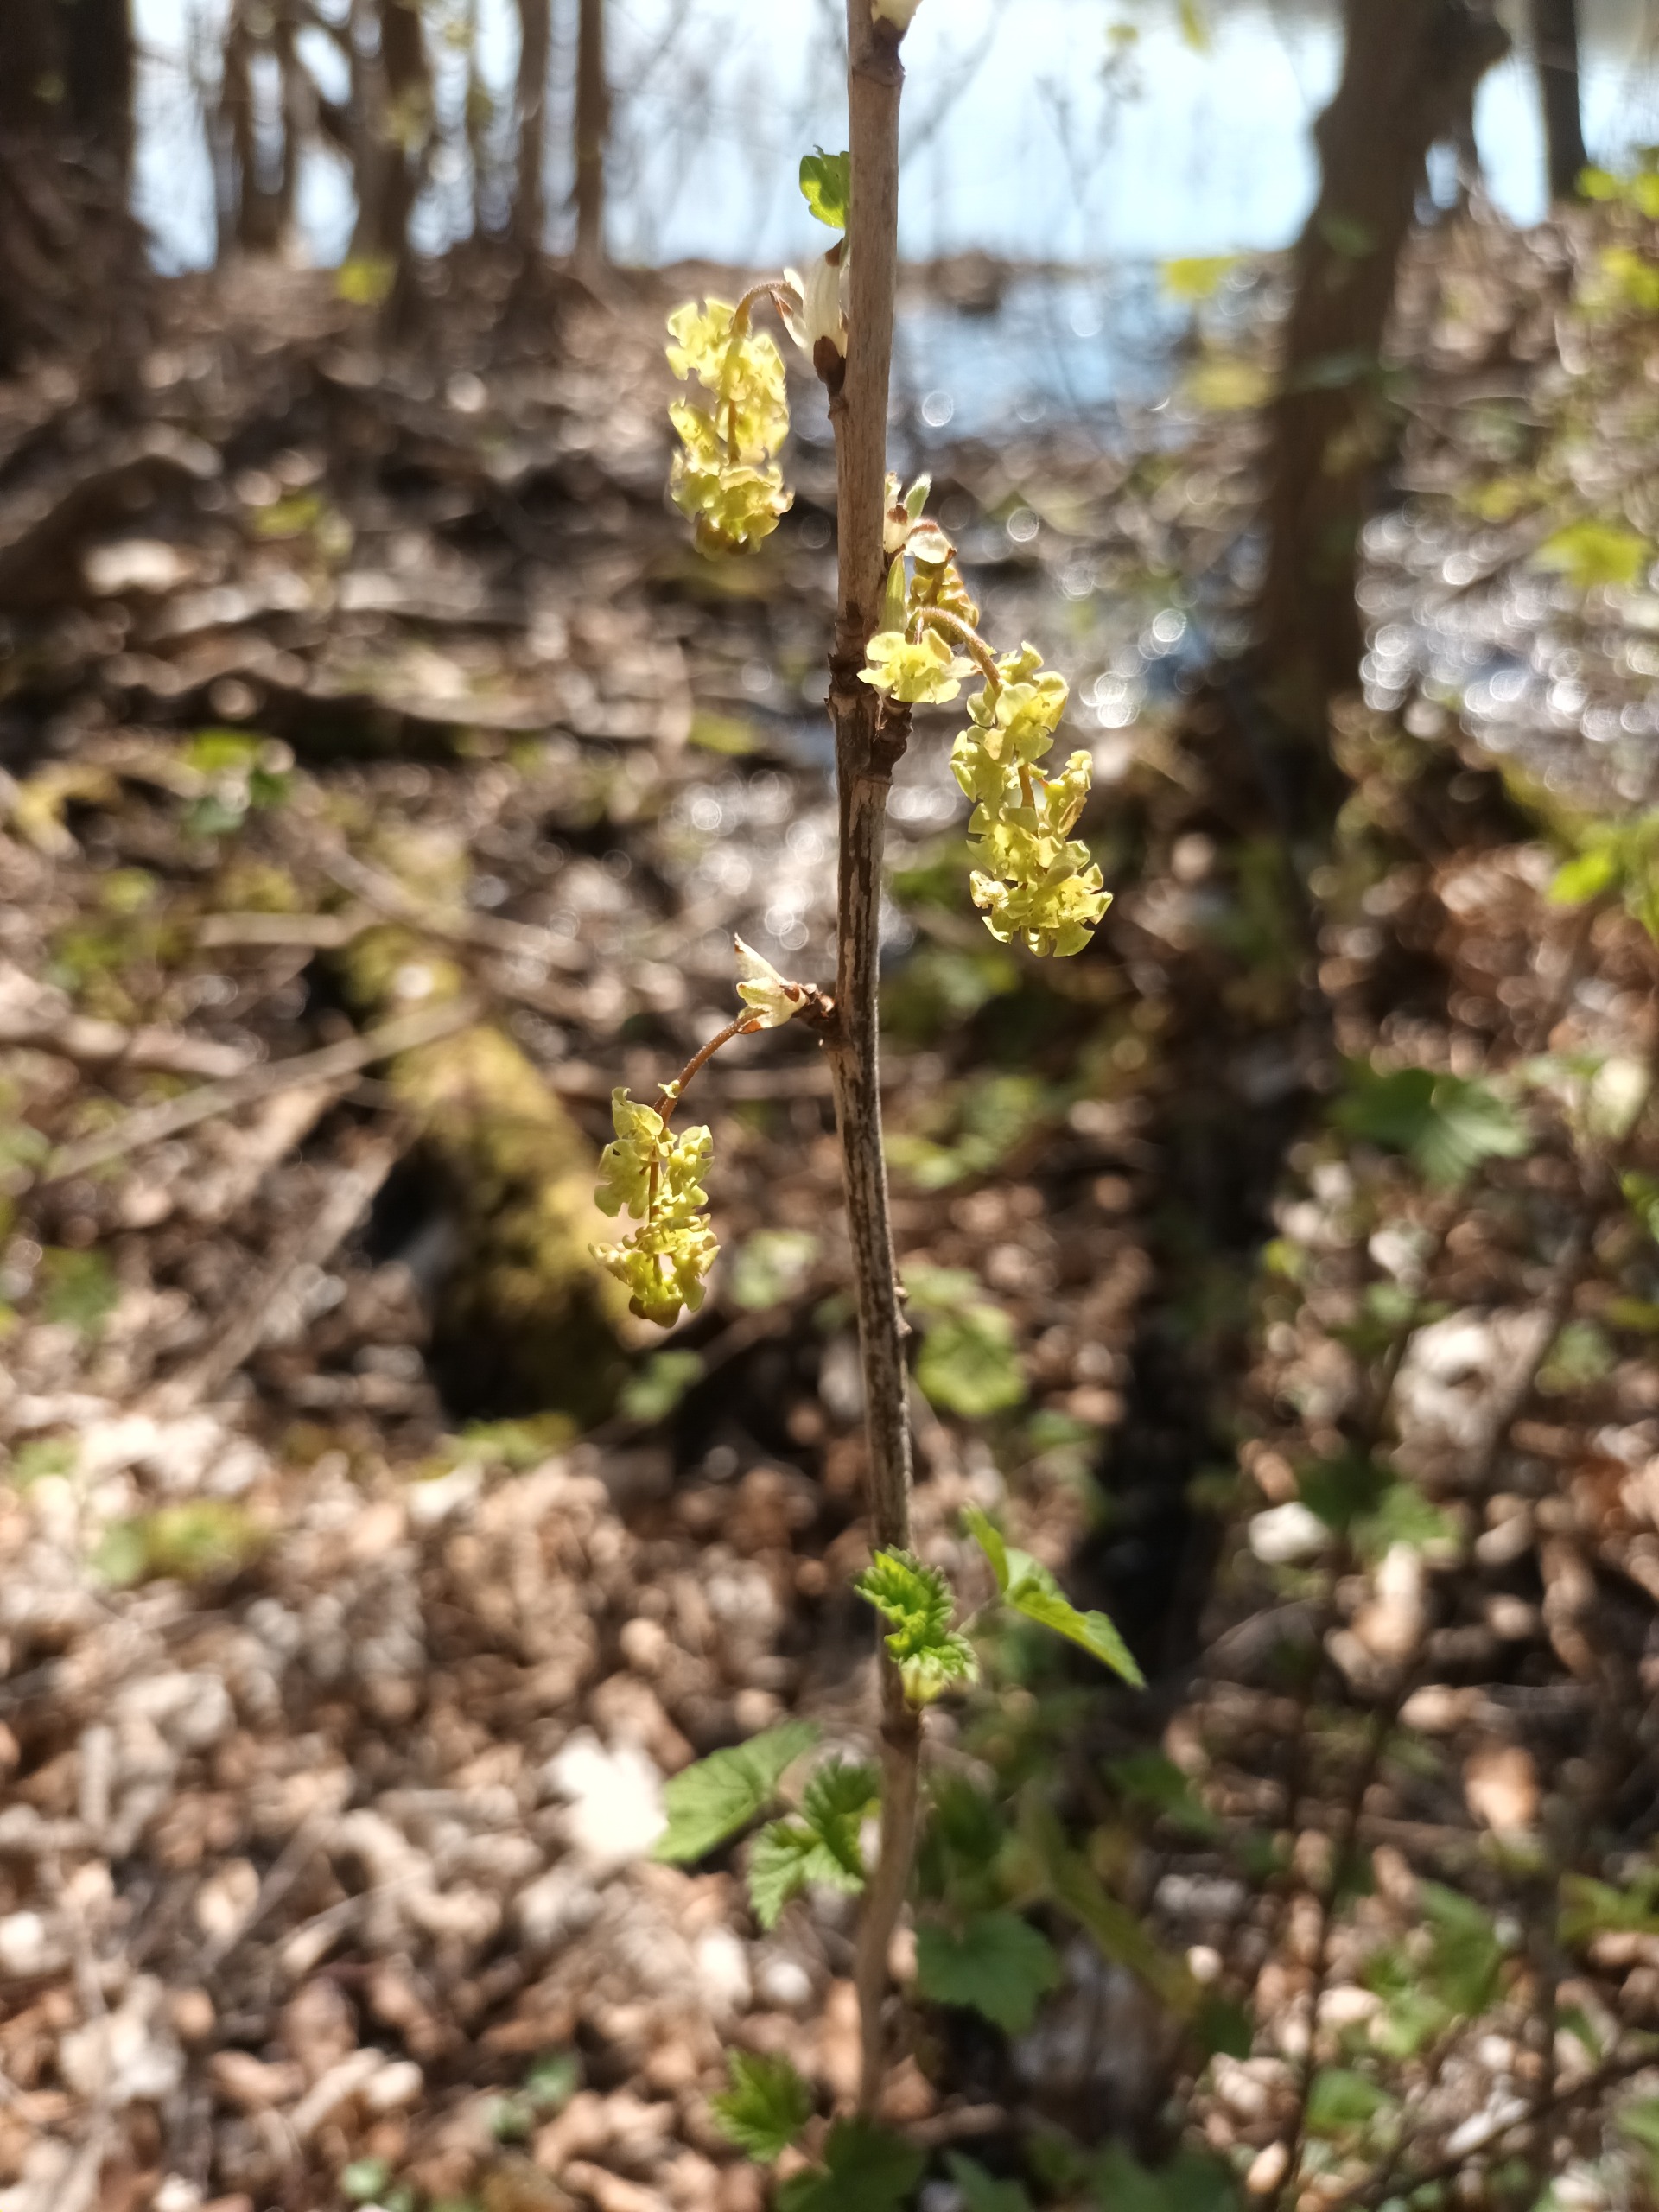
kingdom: Plantae
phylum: Tracheophyta
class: Magnoliopsida
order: Saxifragales
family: Grossulariaceae
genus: Ribes
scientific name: Ribes rubrum
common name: Have-ribs
